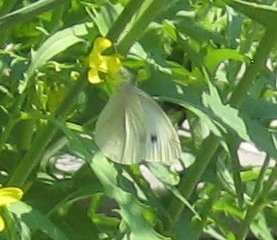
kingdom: Animalia
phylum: Arthropoda
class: Insecta
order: Lepidoptera
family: Pieridae
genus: Pieris
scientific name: Pieris rapae
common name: Cabbage White
